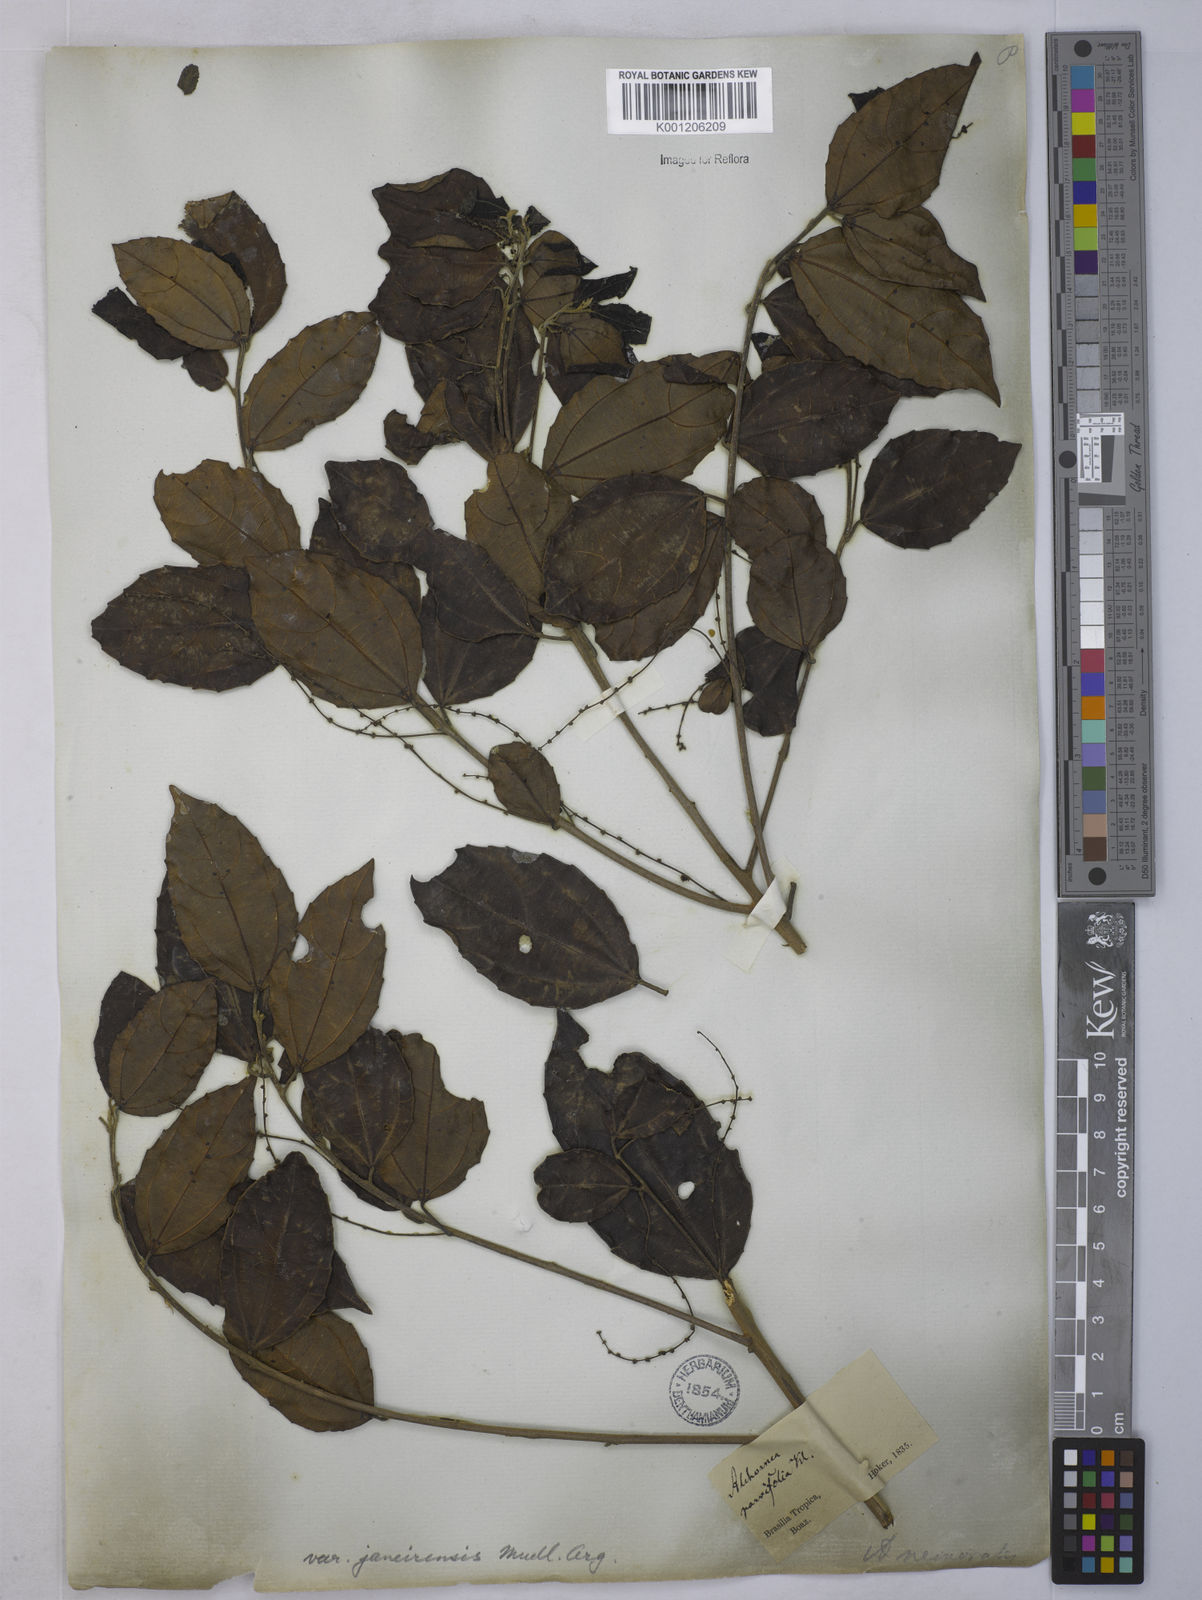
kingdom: Plantae
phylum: Tracheophyta
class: Magnoliopsida
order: Malpighiales
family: Euphorbiaceae
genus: Alchornea
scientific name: Alchornea
